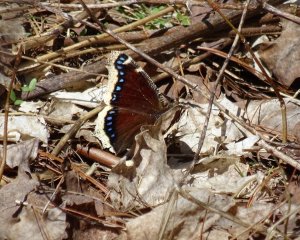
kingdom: Animalia
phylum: Arthropoda
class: Insecta
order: Lepidoptera
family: Nymphalidae
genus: Nymphalis
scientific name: Nymphalis antiopa
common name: Mourning Cloak
